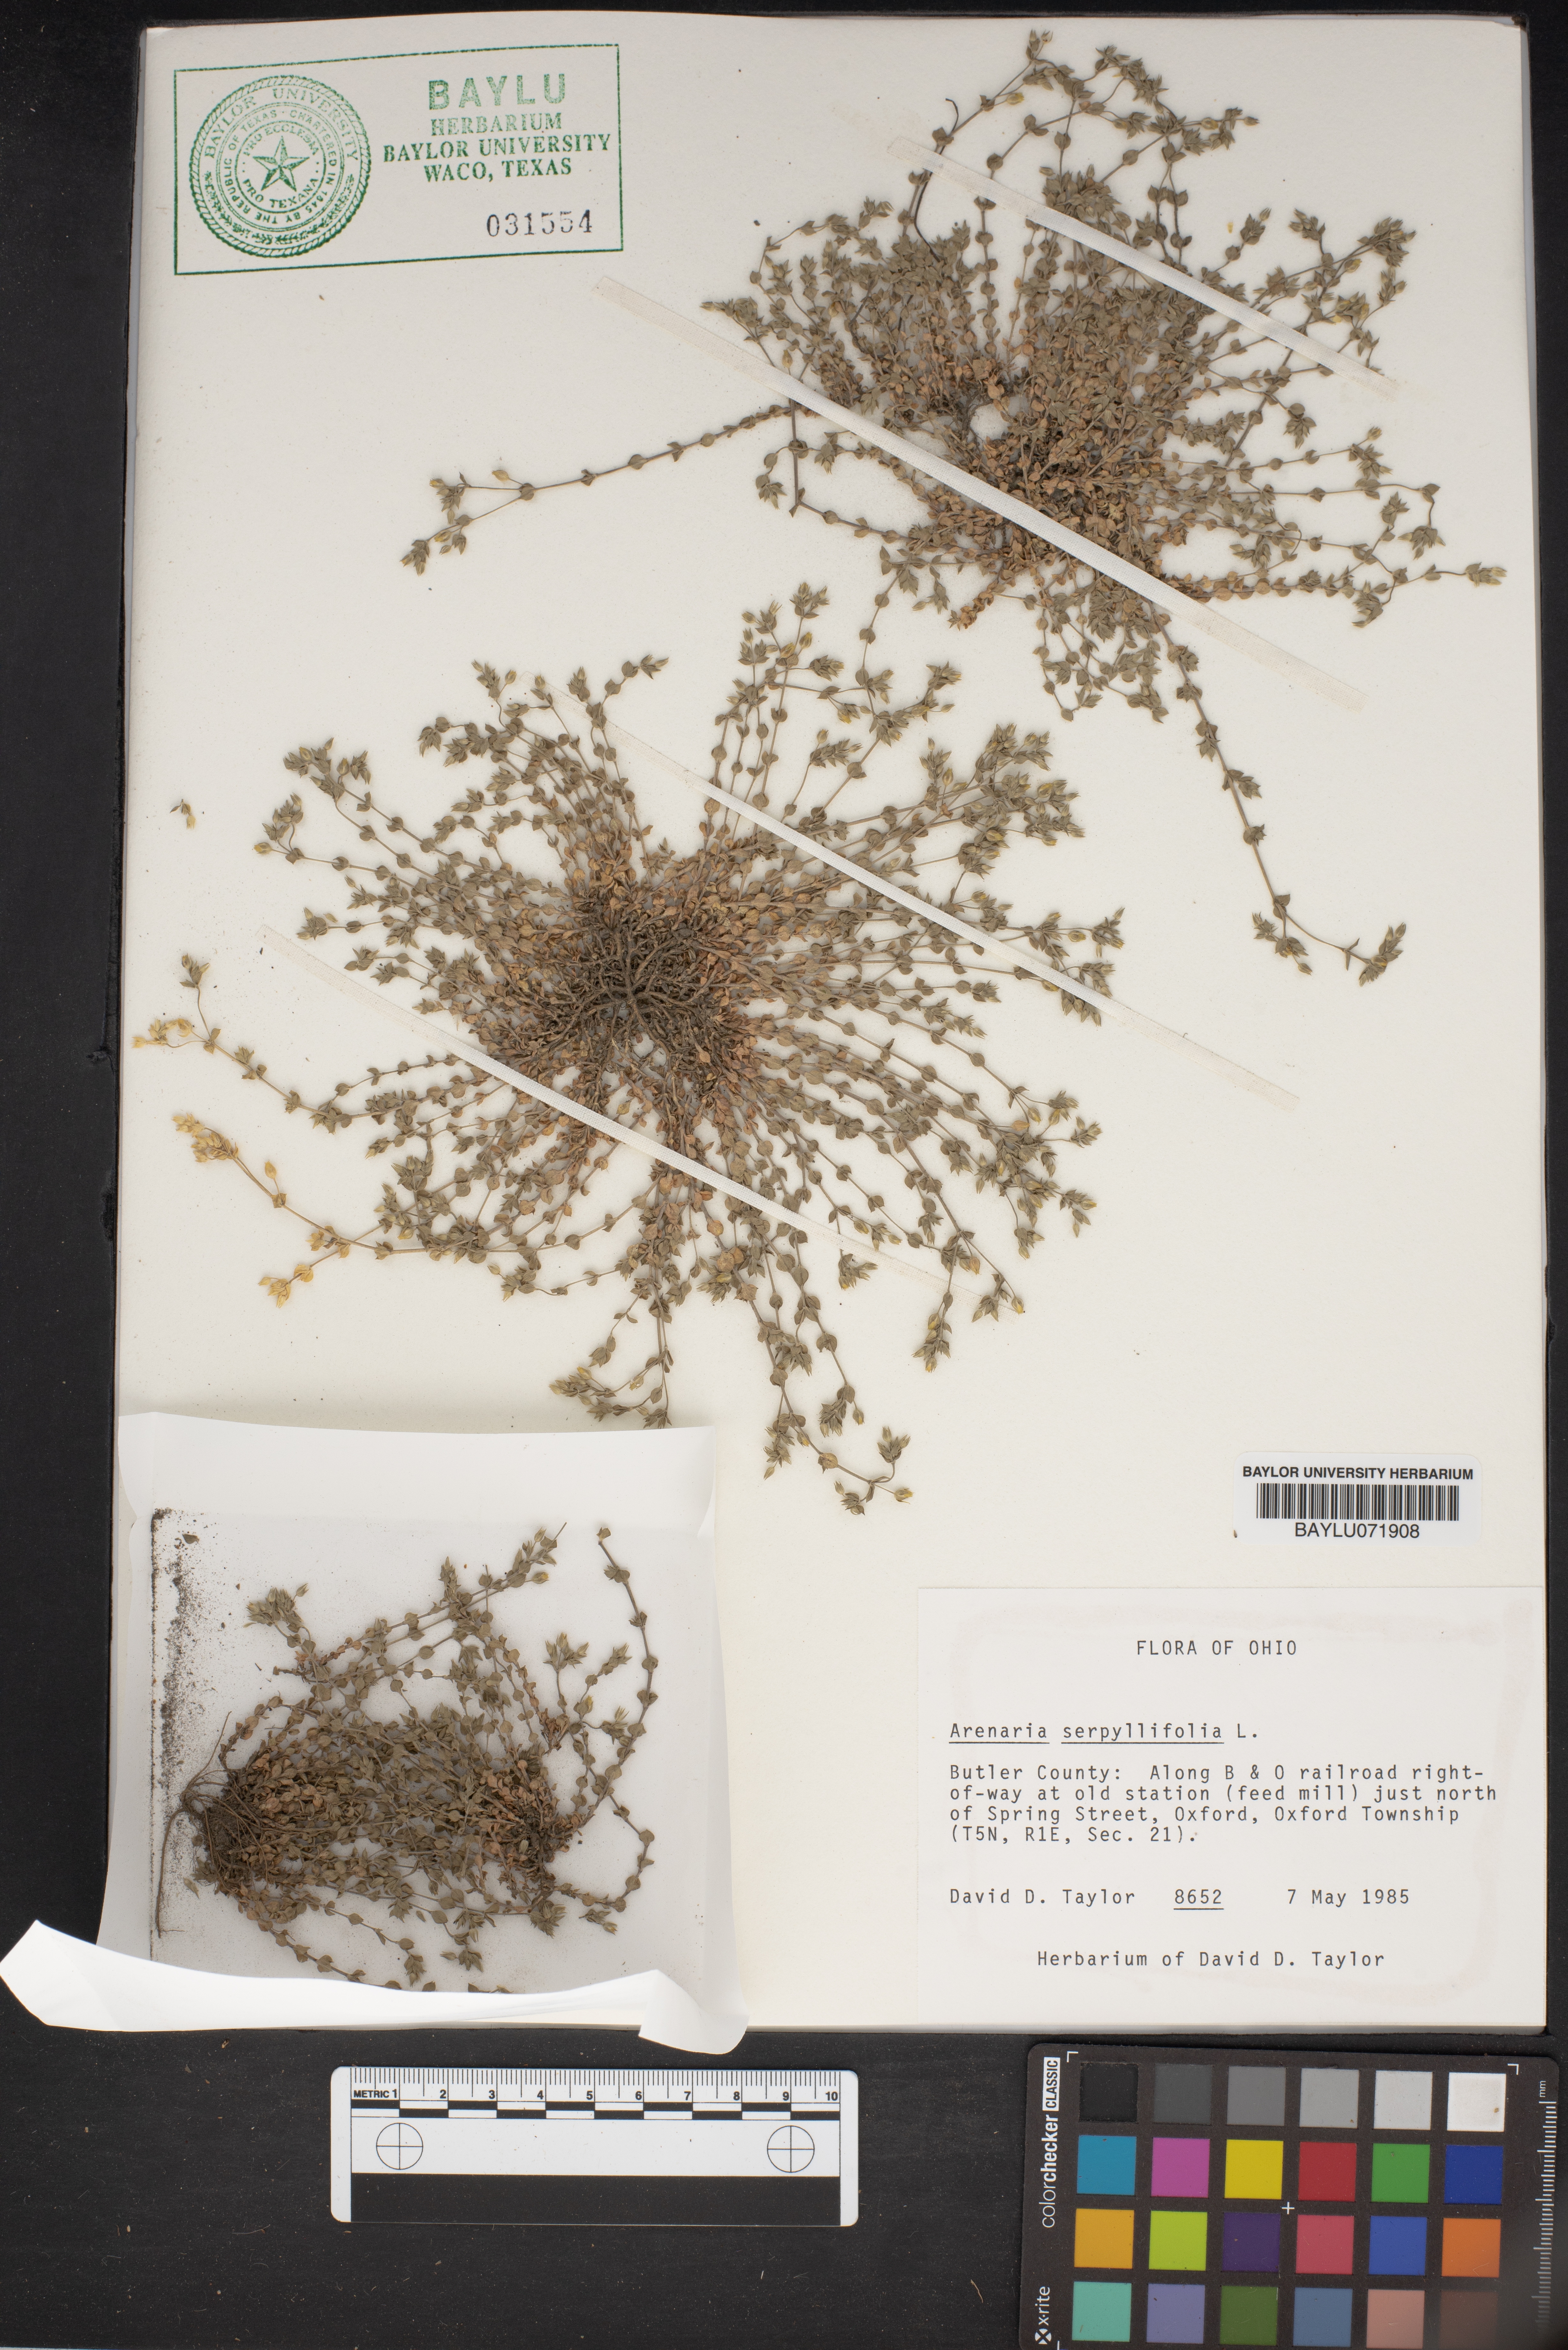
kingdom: Plantae
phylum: Tracheophyta
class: Magnoliopsida
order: Caryophyllales
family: Caryophyllaceae
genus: Arenaria
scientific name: Arenaria serpyllifolia
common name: Thyme-leaved sandwort
